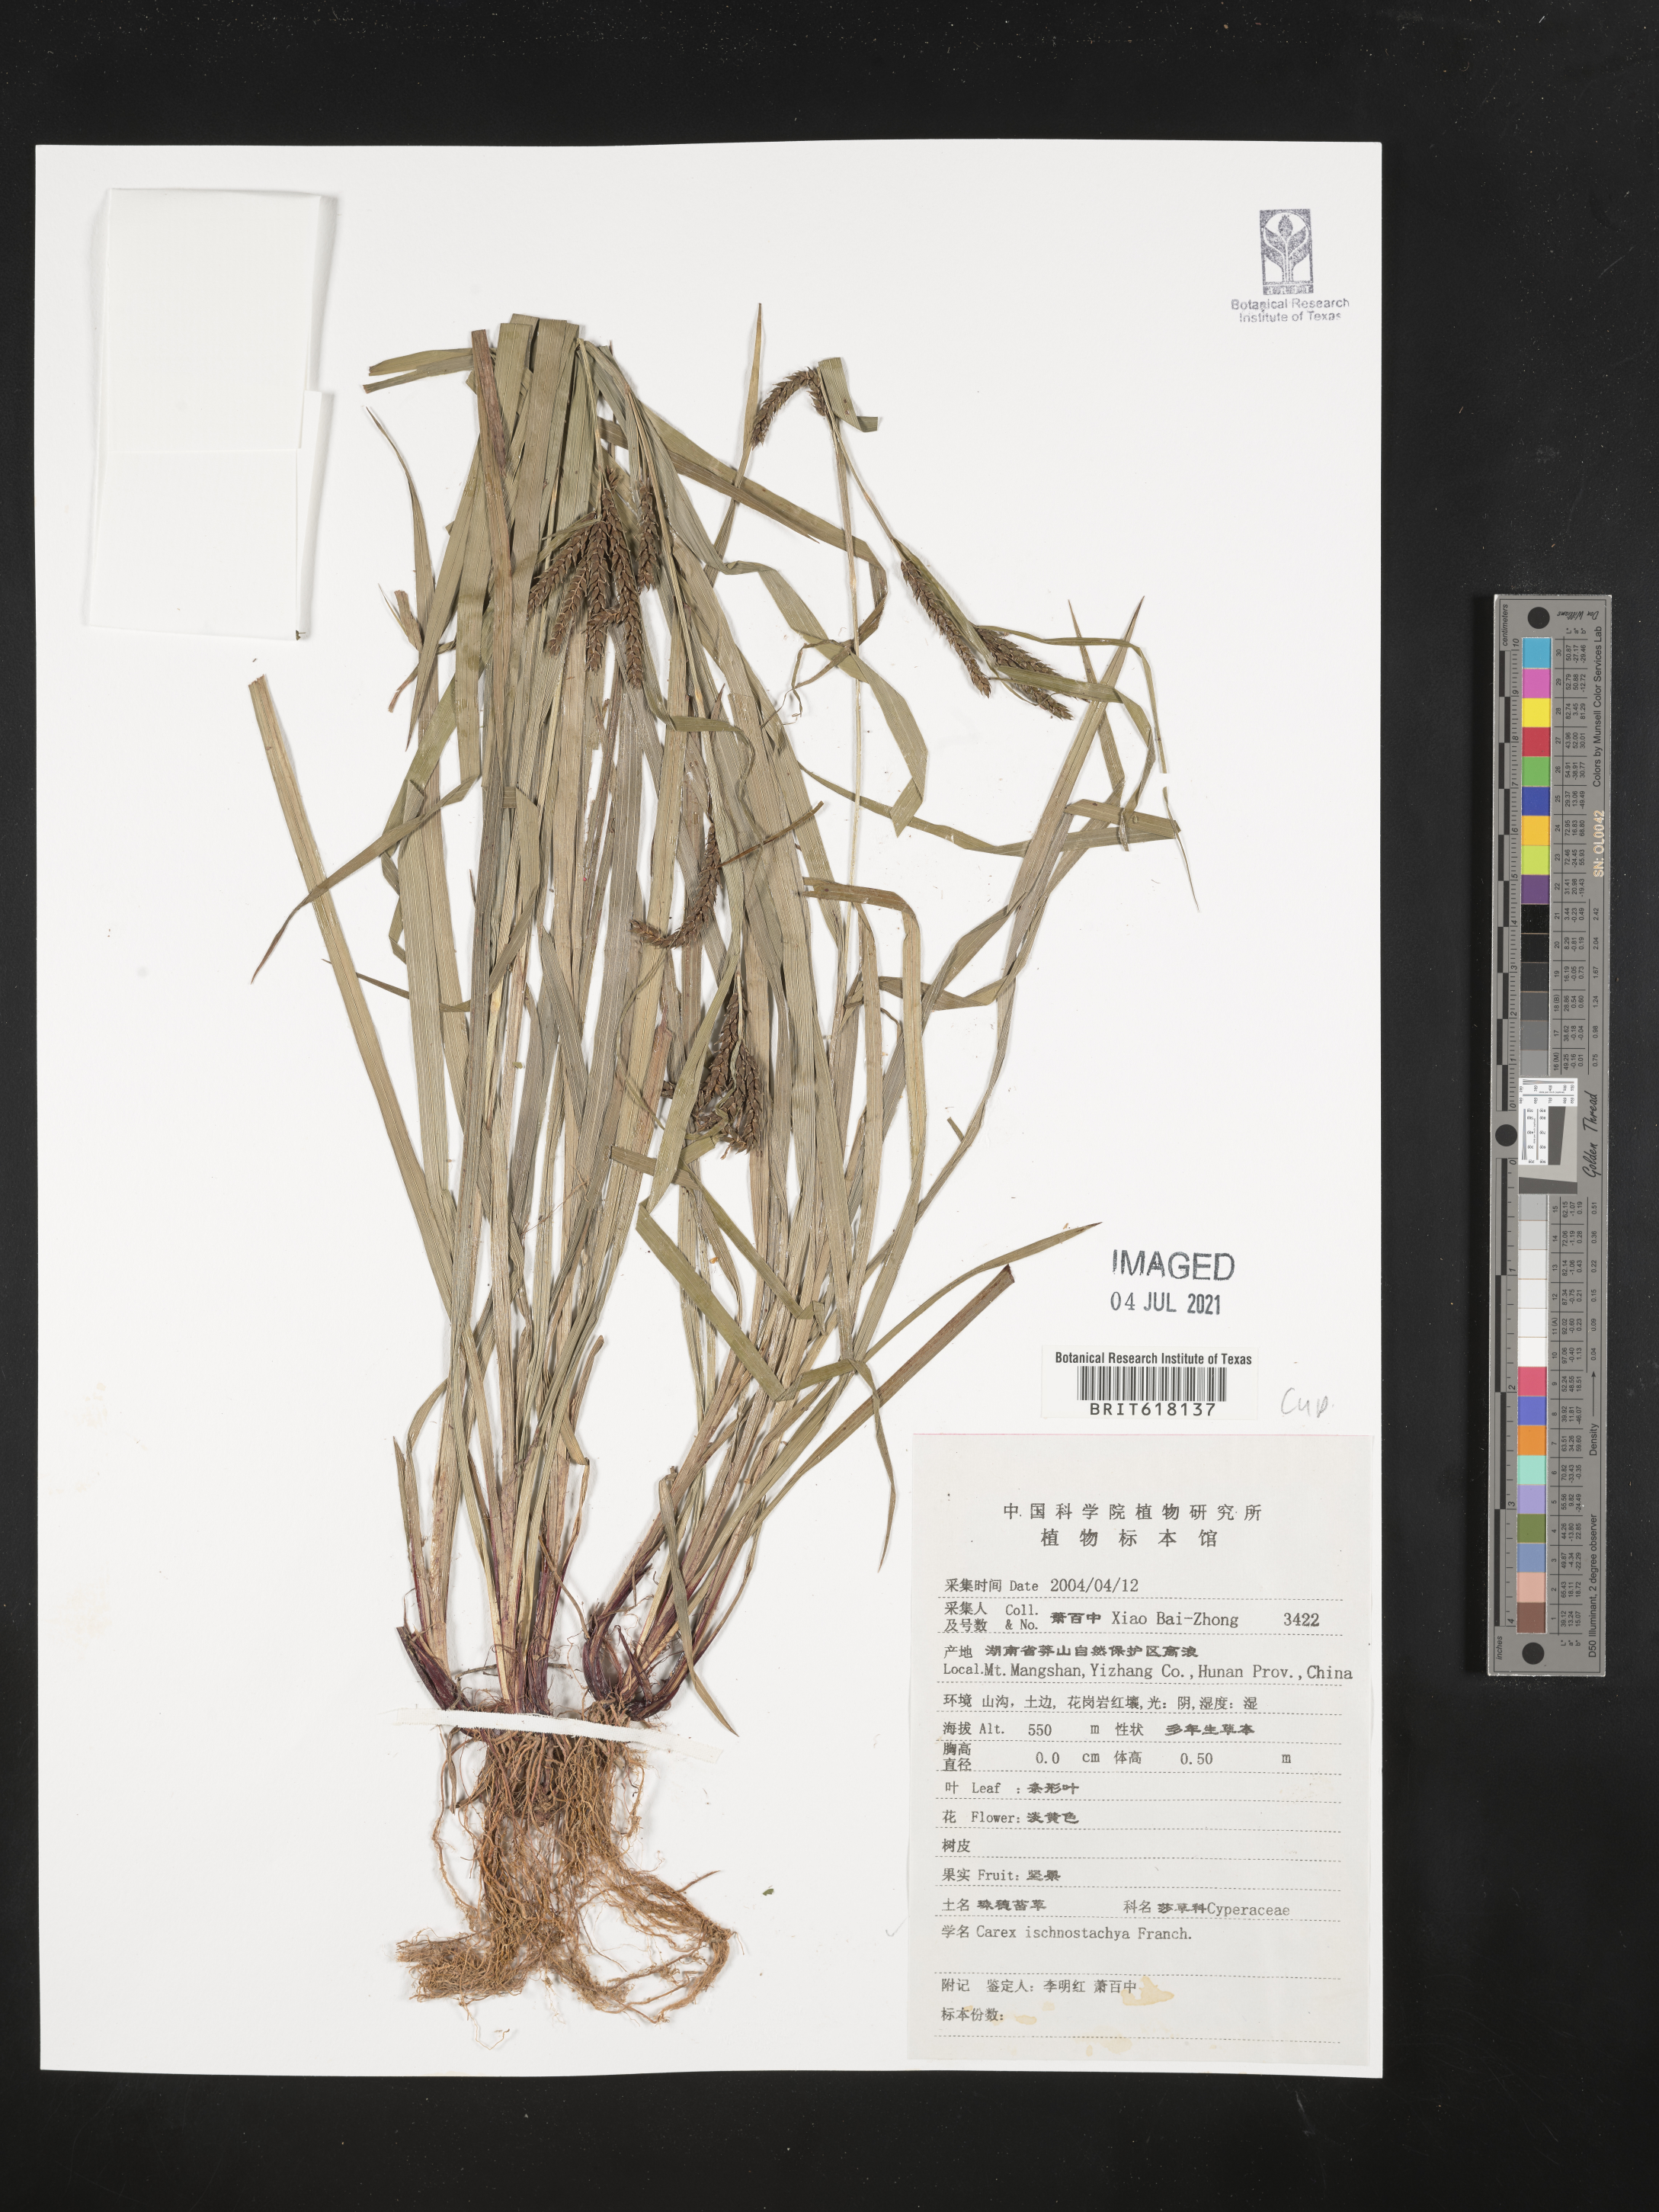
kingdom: Plantae
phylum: Tracheophyta
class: Liliopsida
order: Poales
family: Cyperaceae
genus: Carex
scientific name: Carex ischnostachya
